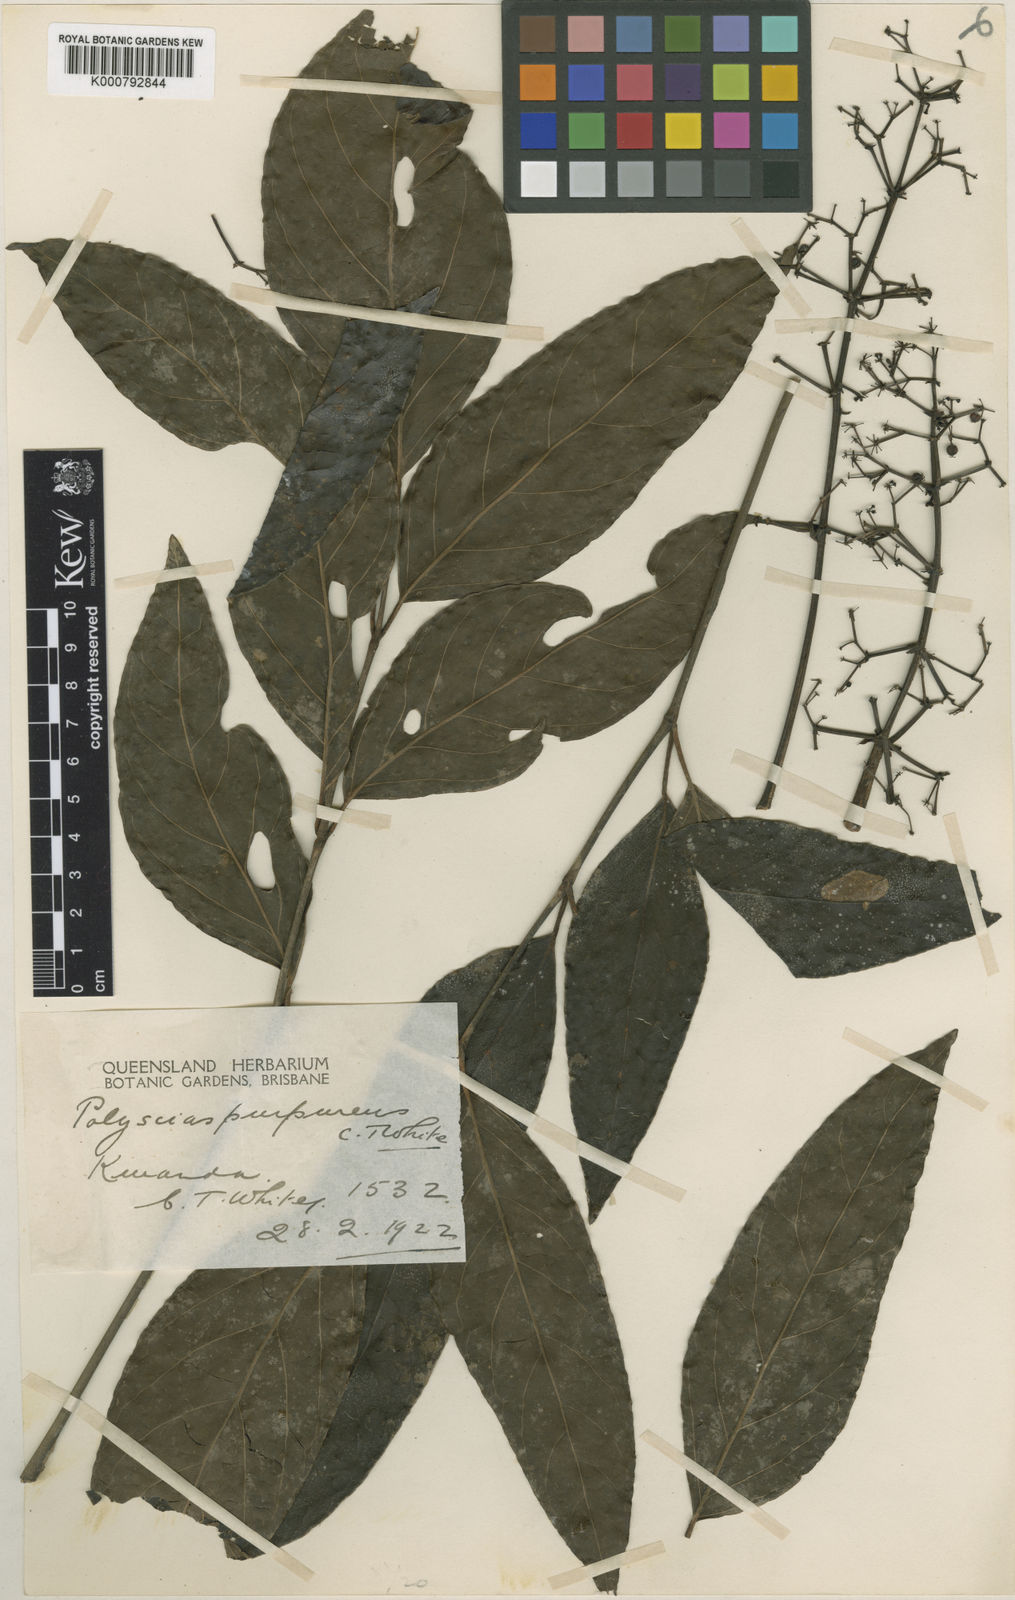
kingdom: Plantae
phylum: Tracheophyta
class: Magnoliopsida
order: Apiales
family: Araliaceae
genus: Polyscias
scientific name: Polyscias purpurea
